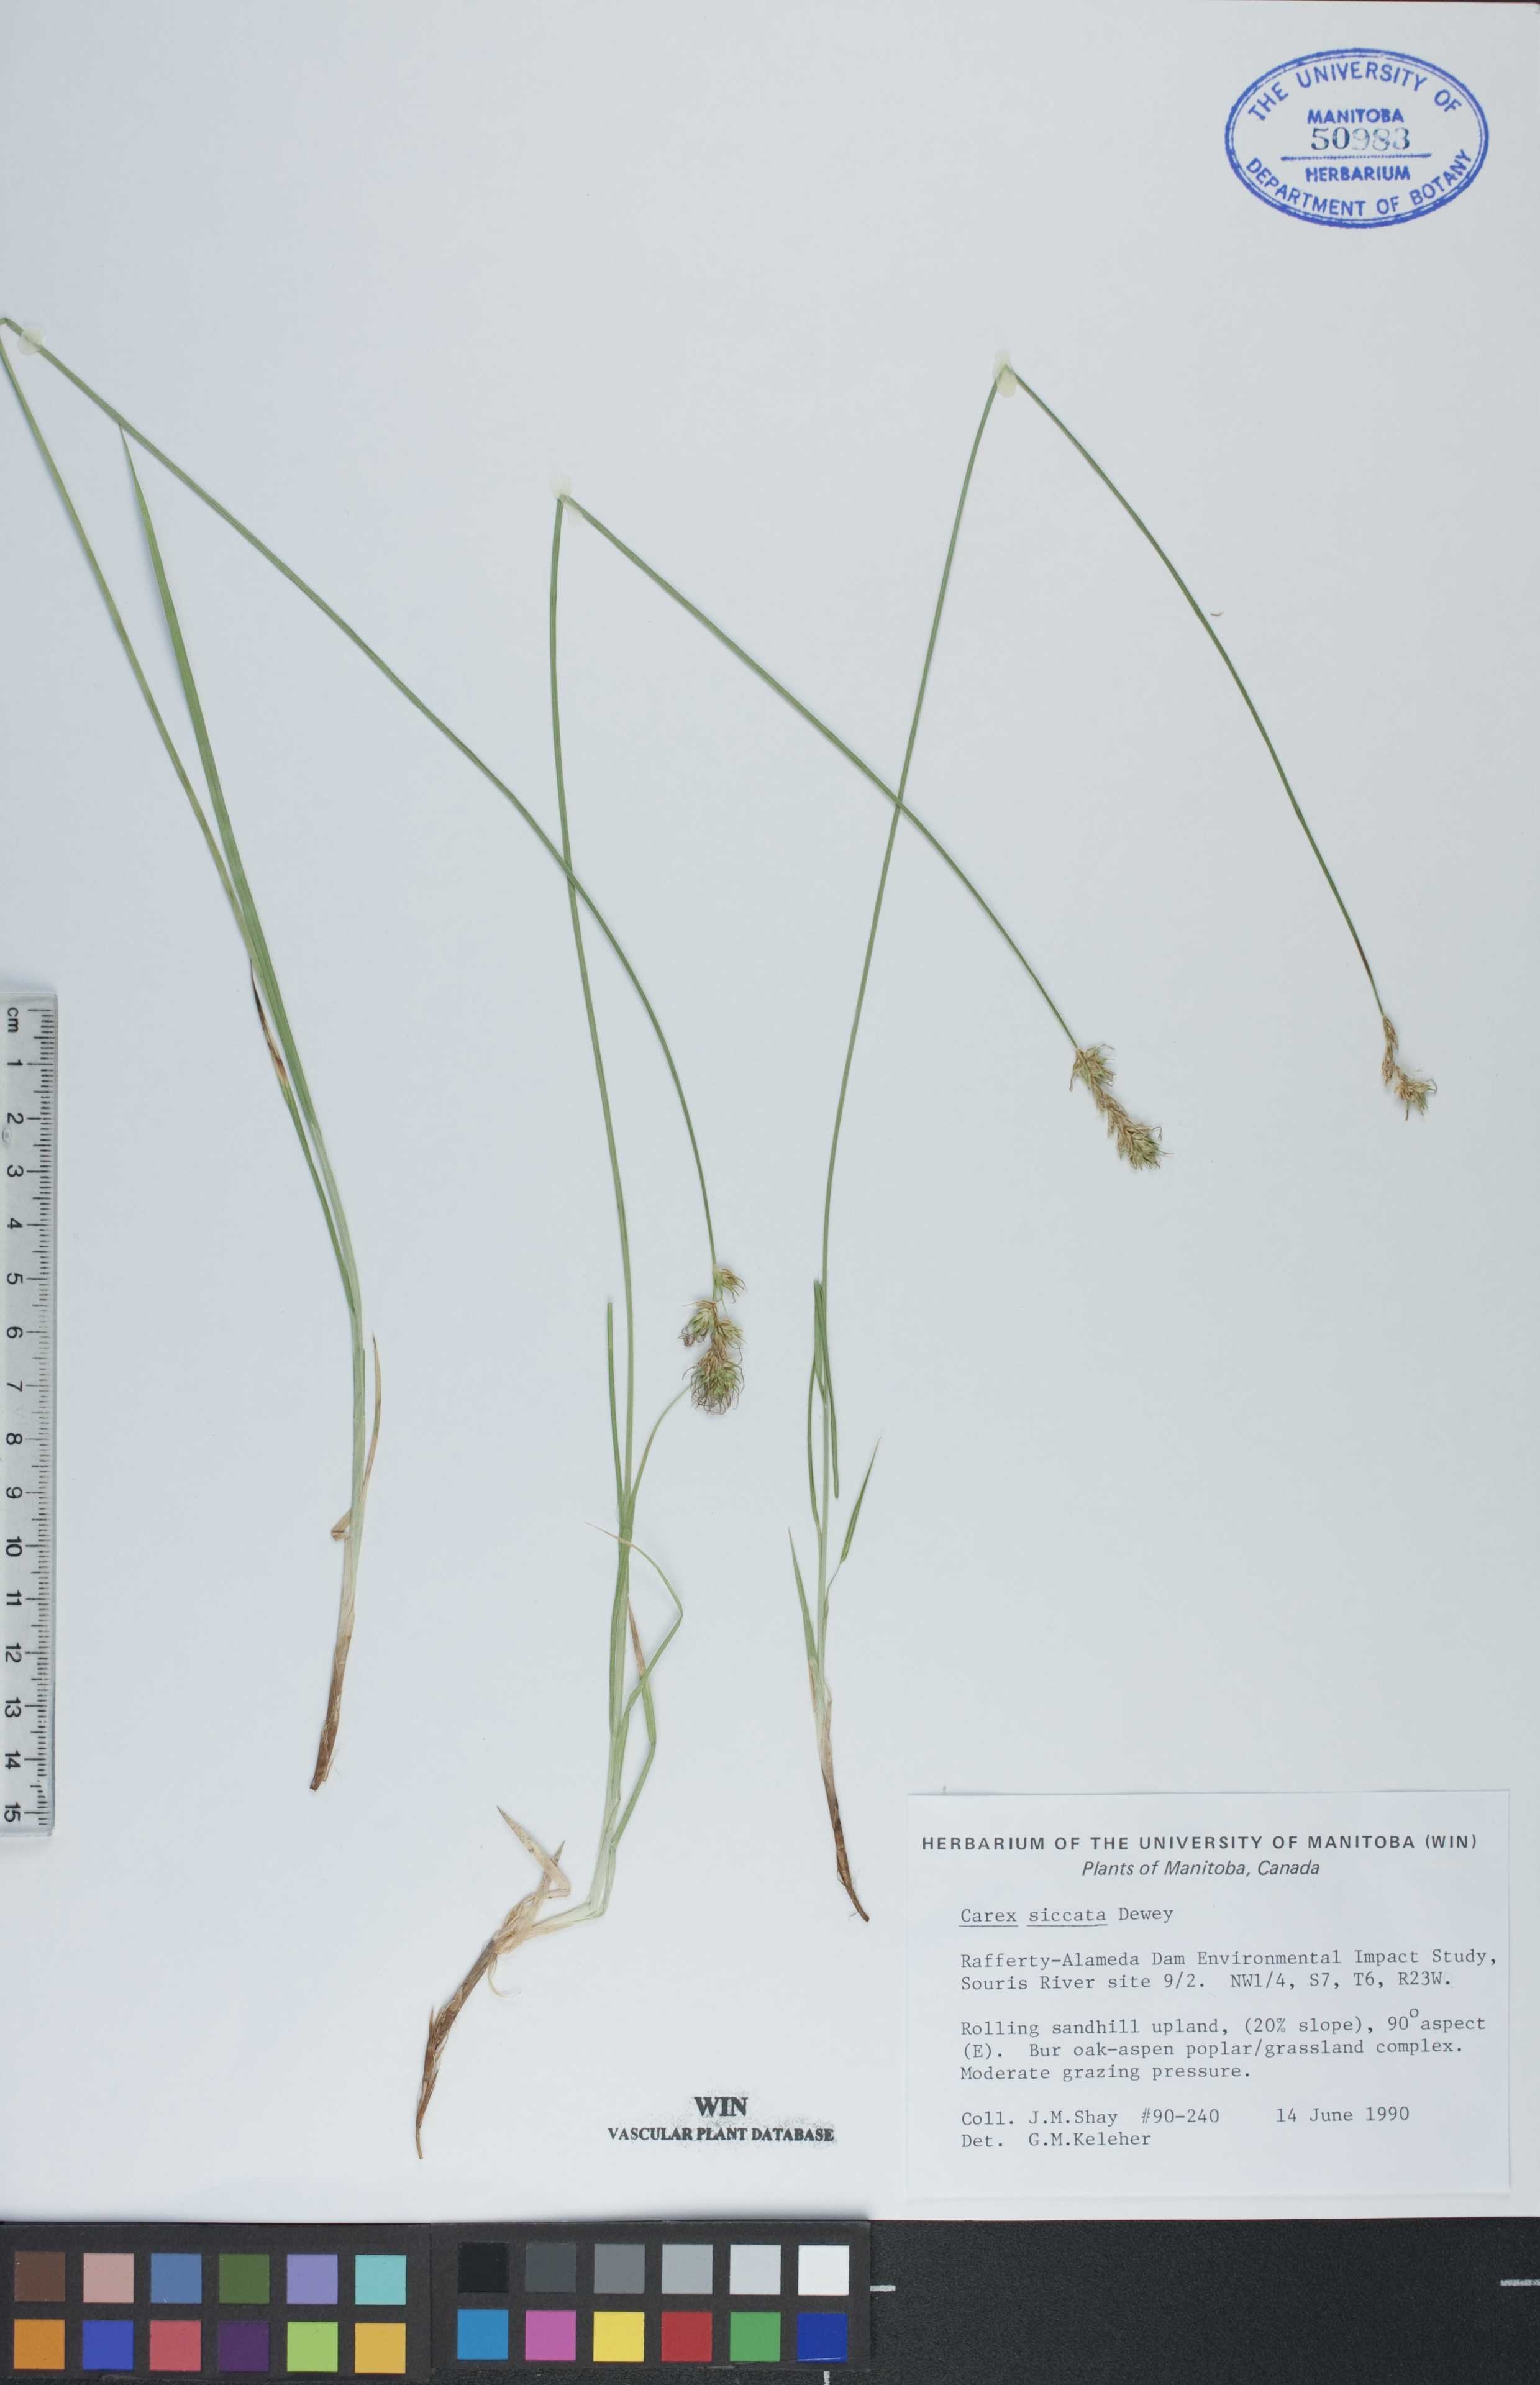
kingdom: Plantae
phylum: Tracheophyta
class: Liliopsida
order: Poales
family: Cyperaceae
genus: Carex
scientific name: Carex siccata
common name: Dry sedge
